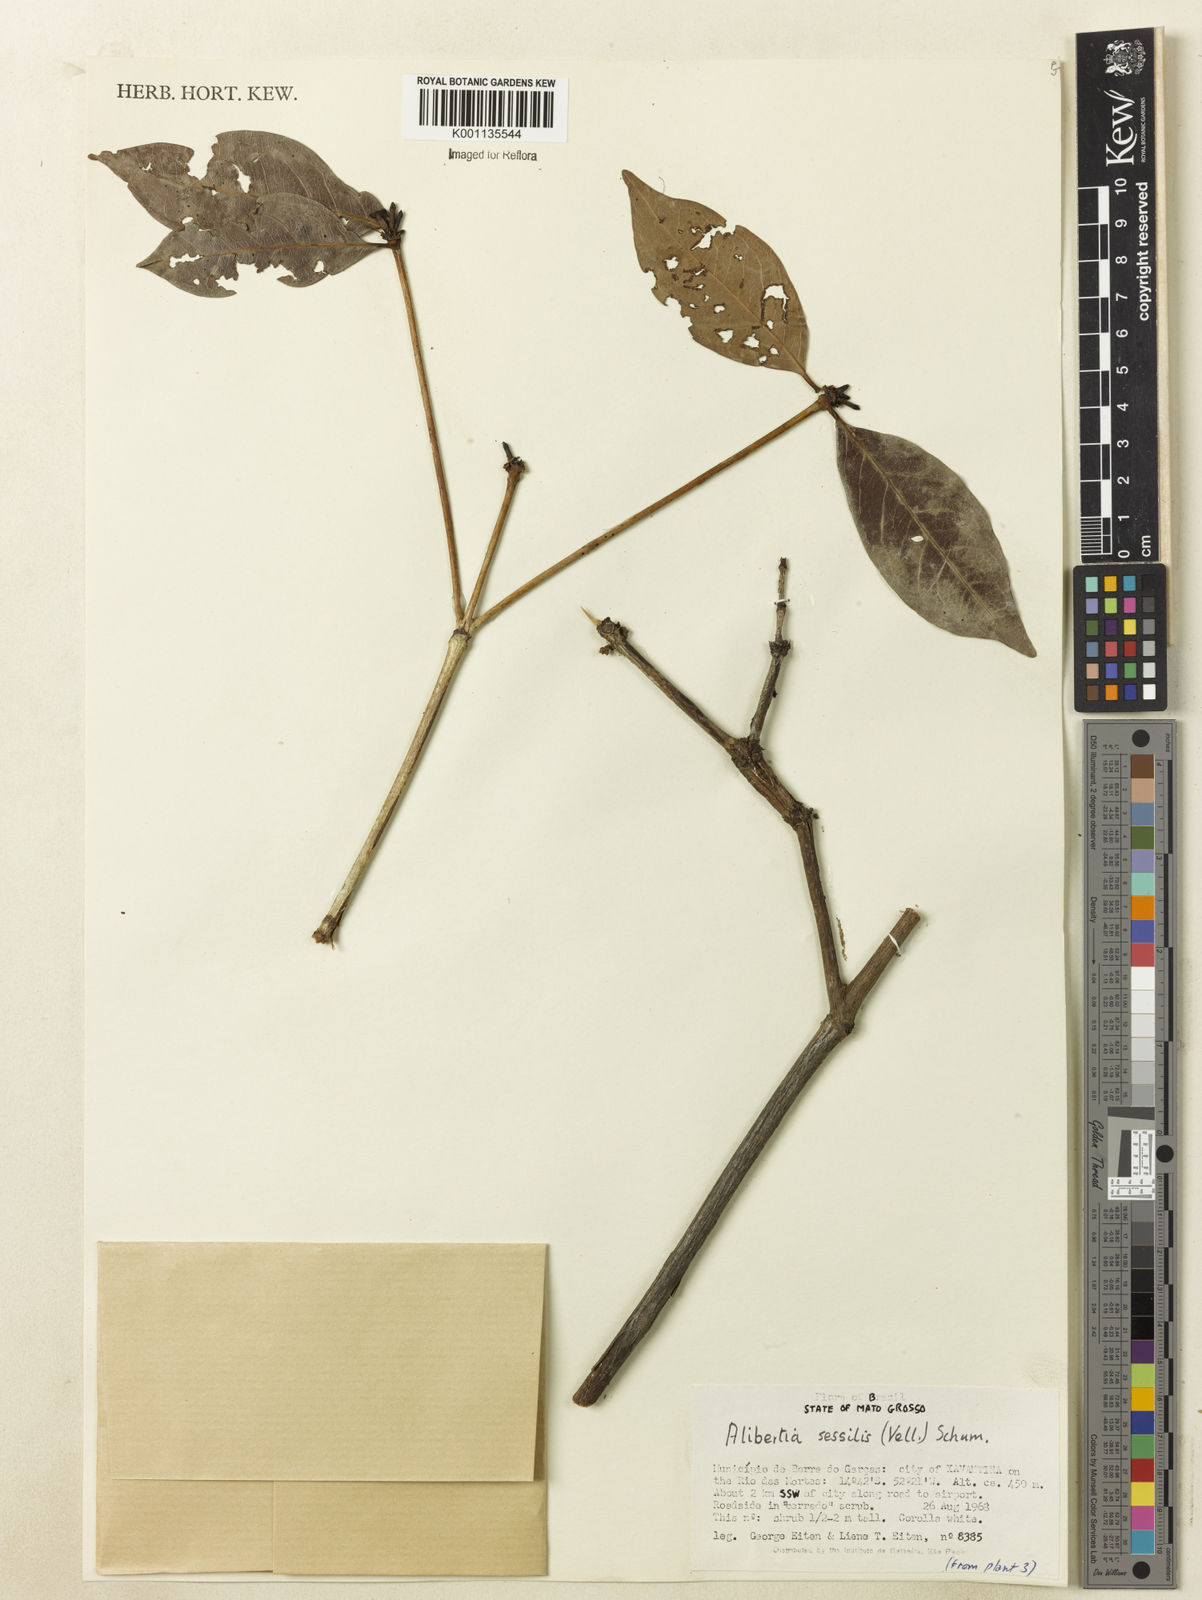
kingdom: Plantae
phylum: Tracheophyta
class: Magnoliopsida
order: Gentianales
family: Rubiaceae
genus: Cordiera
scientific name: Cordiera sessilis
